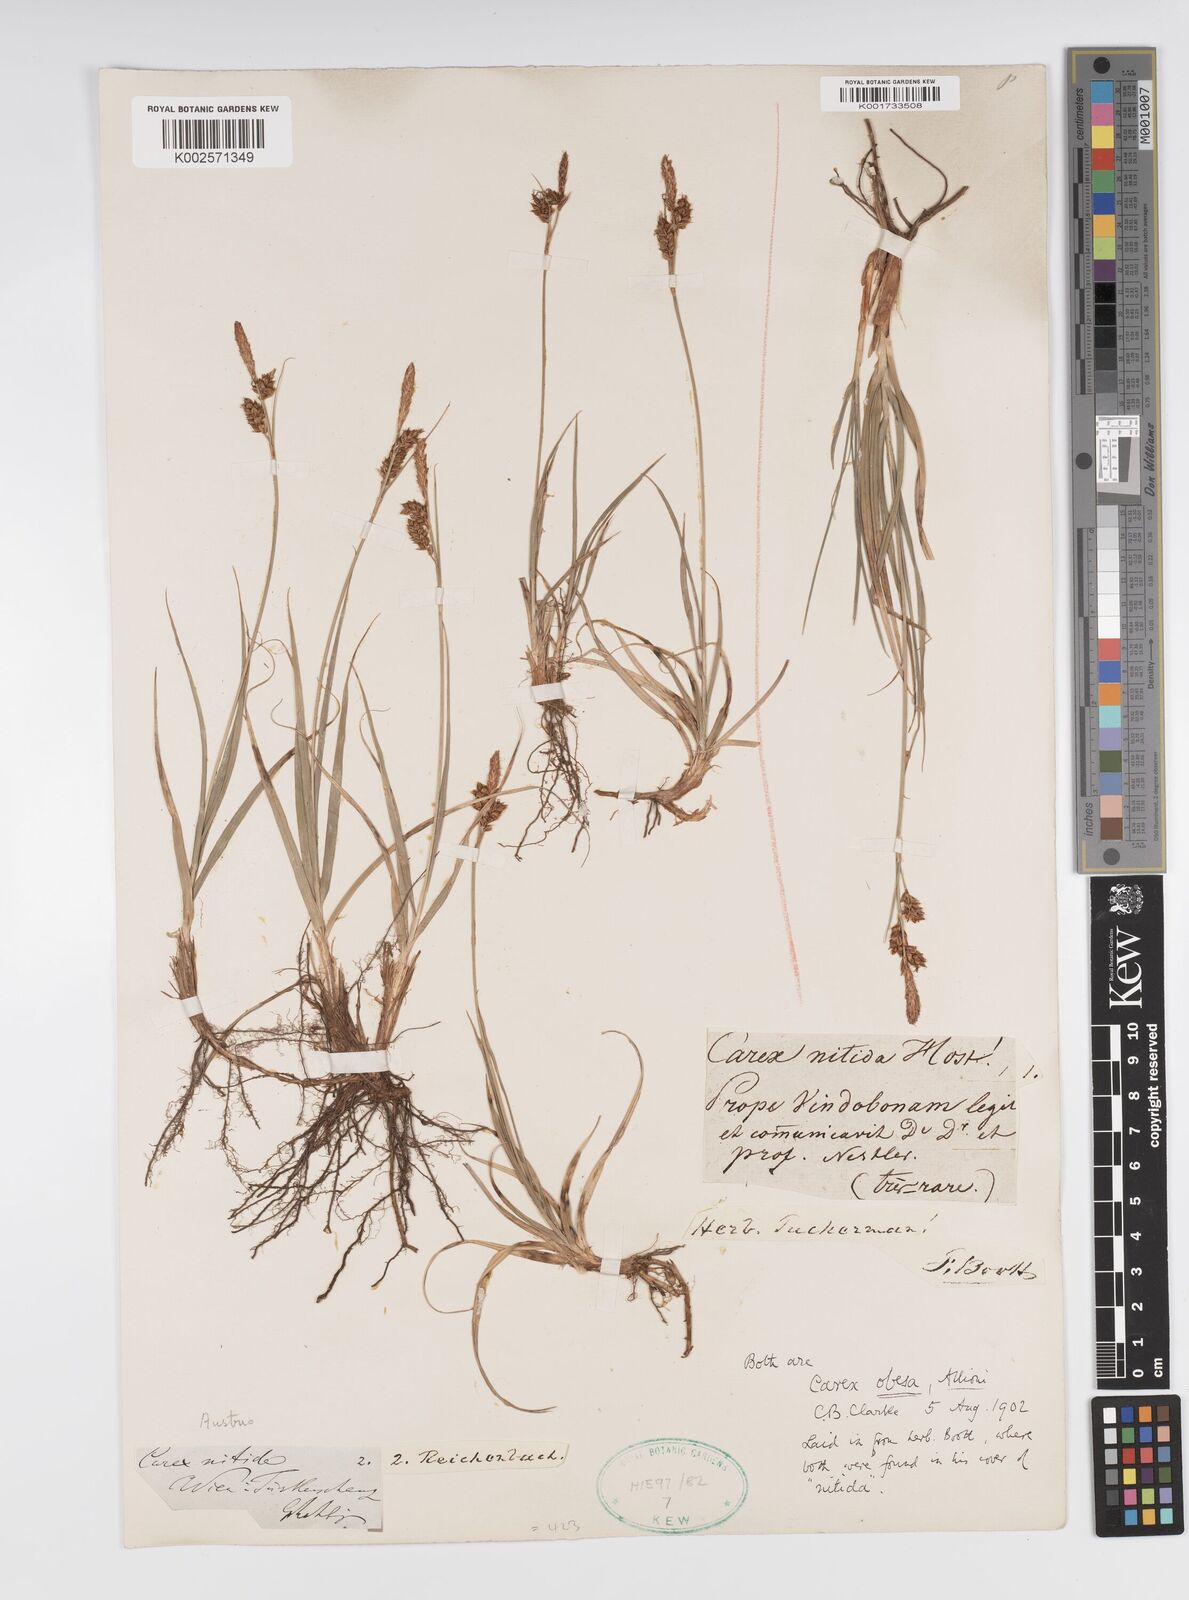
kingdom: Plantae
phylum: Tracheophyta
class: Liliopsida
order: Poales
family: Cyperaceae
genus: Carex
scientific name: Carex liparocarpos
